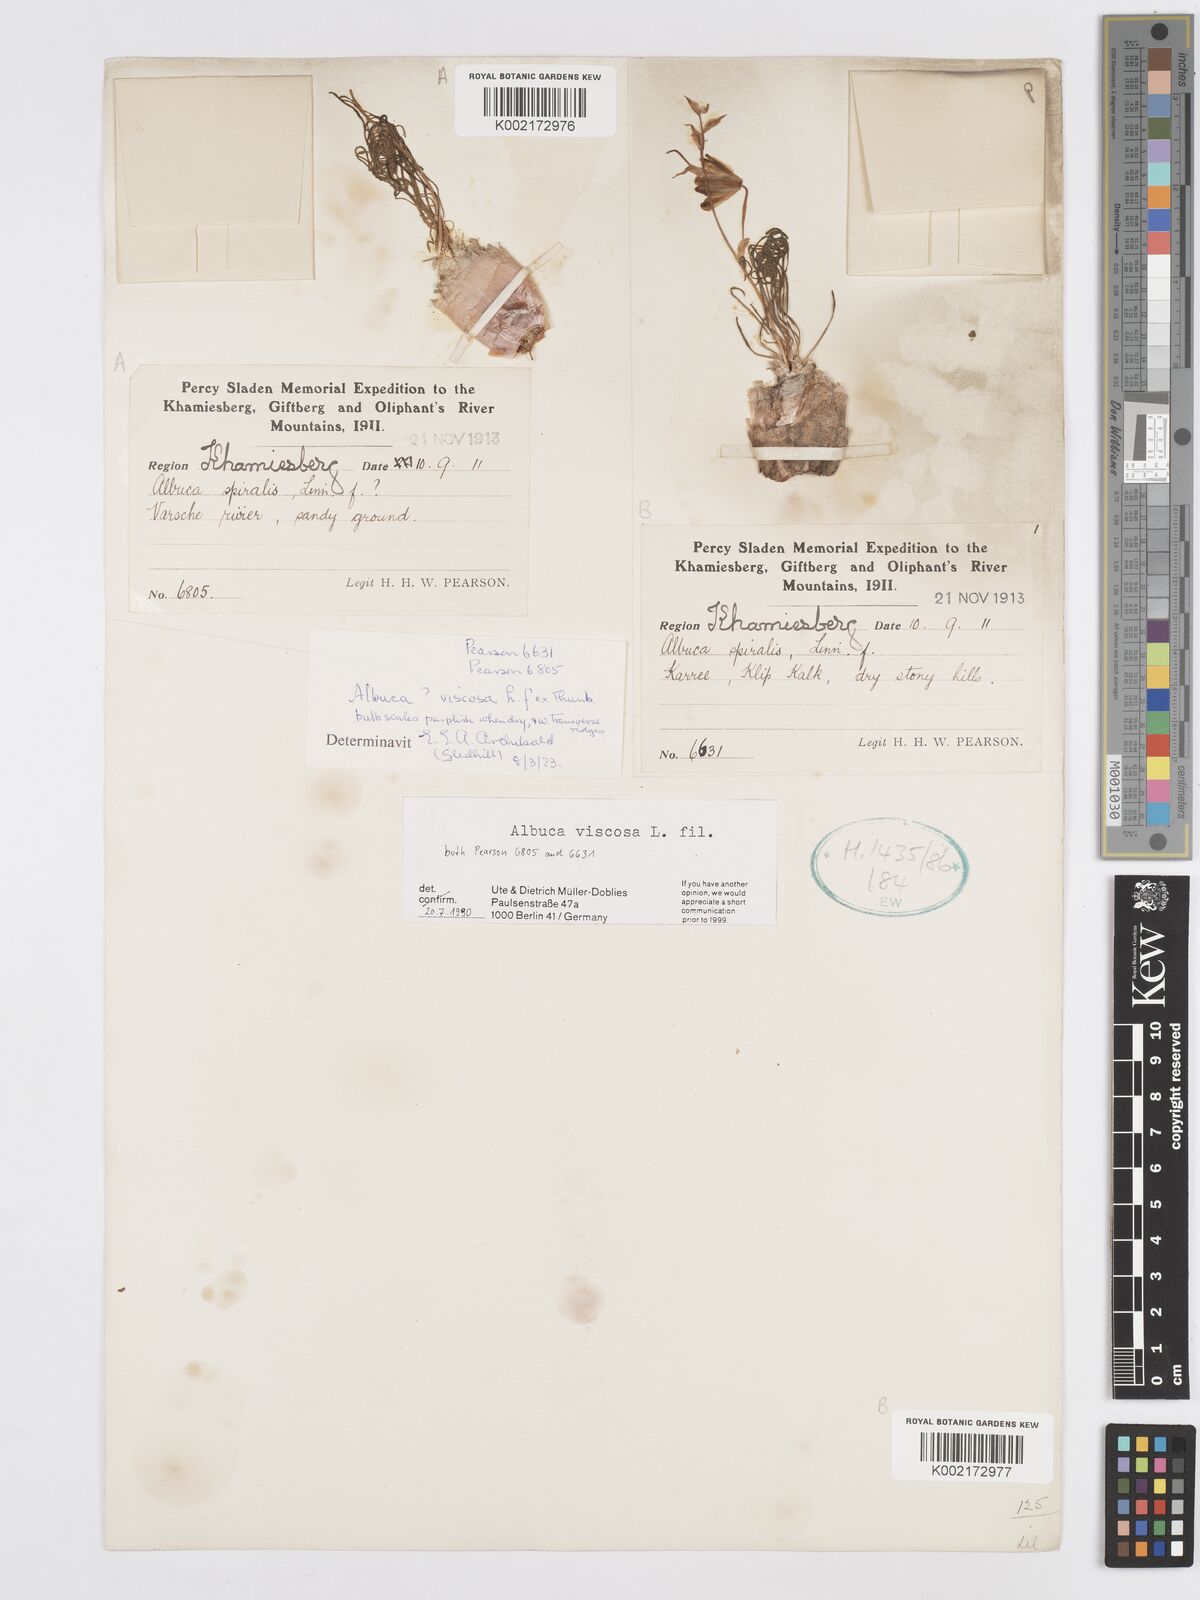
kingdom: Plantae
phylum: Tracheophyta
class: Liliopsida
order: Asparagales
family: Asparagaceae
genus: Albuca
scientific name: Albuca viscosa
